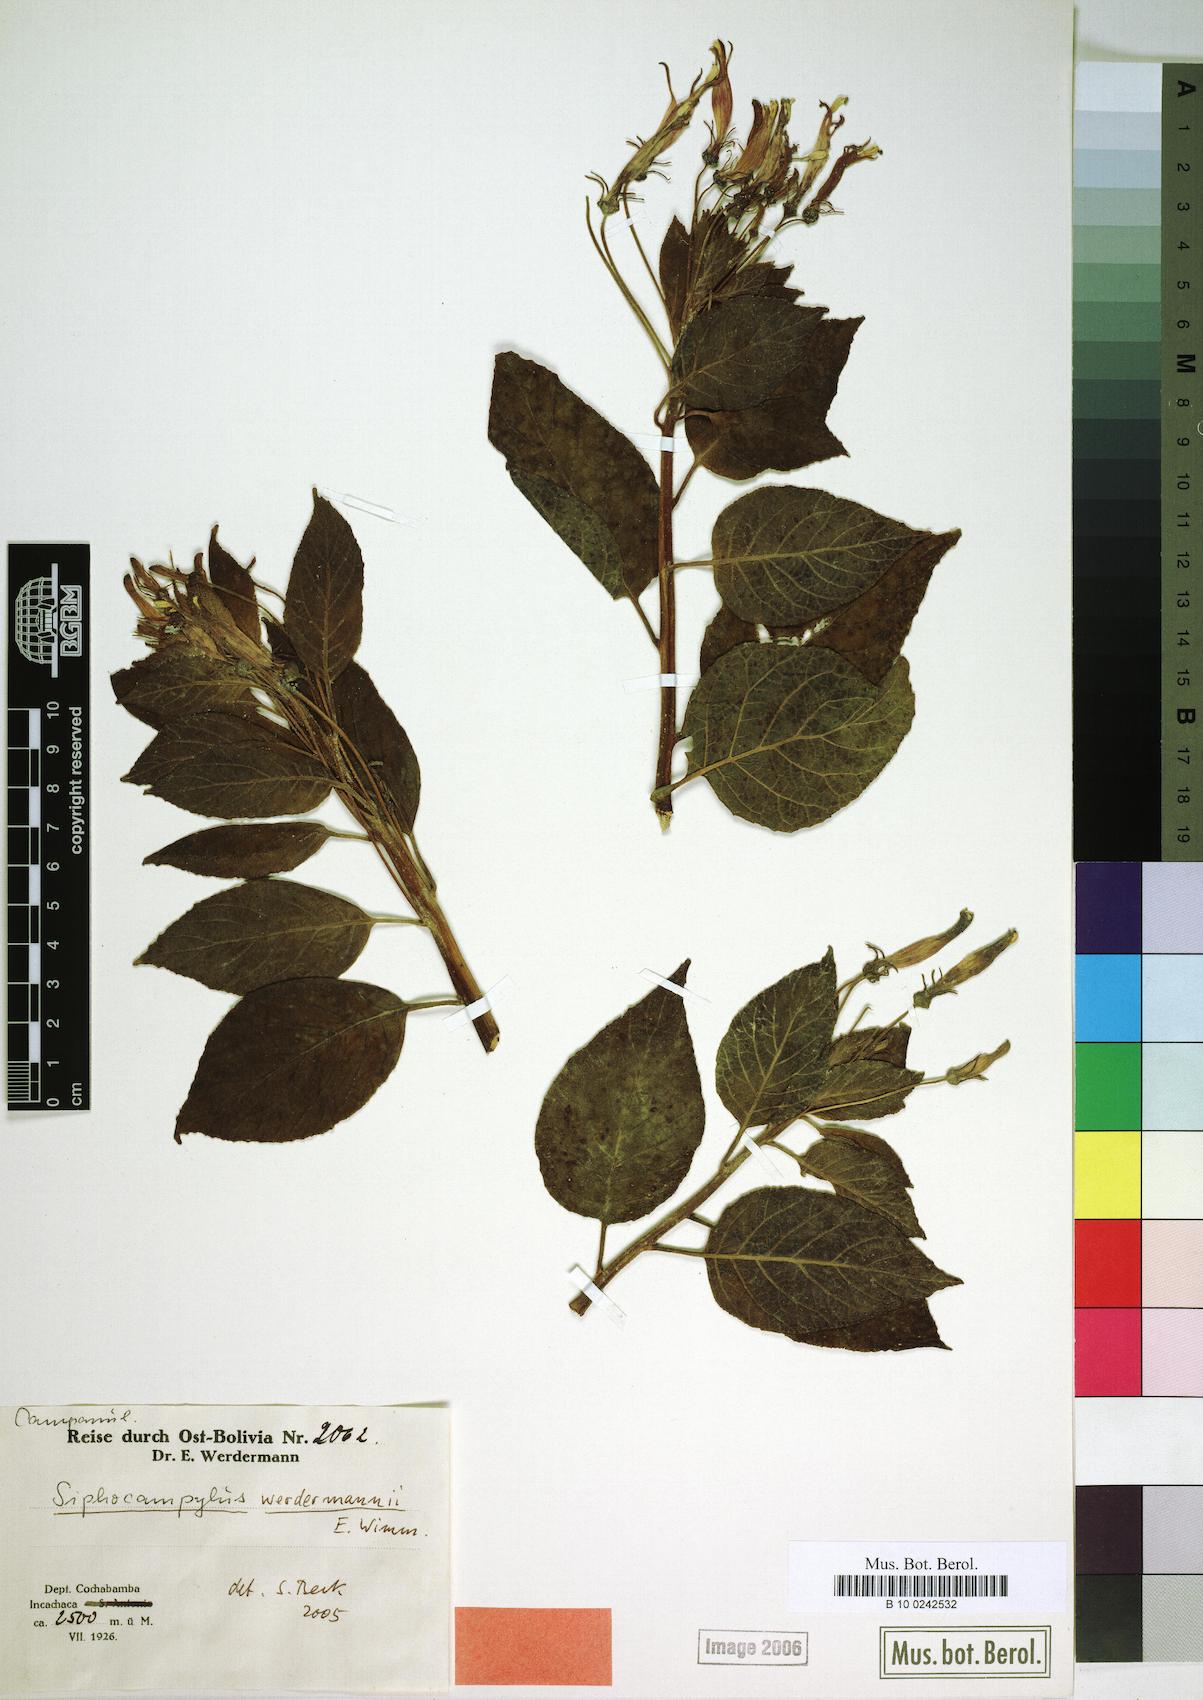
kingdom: Plantae
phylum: Tracheophyta
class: Magnoliopsida
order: Asterales
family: Campanulaceae
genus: Siphocampylus
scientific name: Siphocampylus werdermannii
